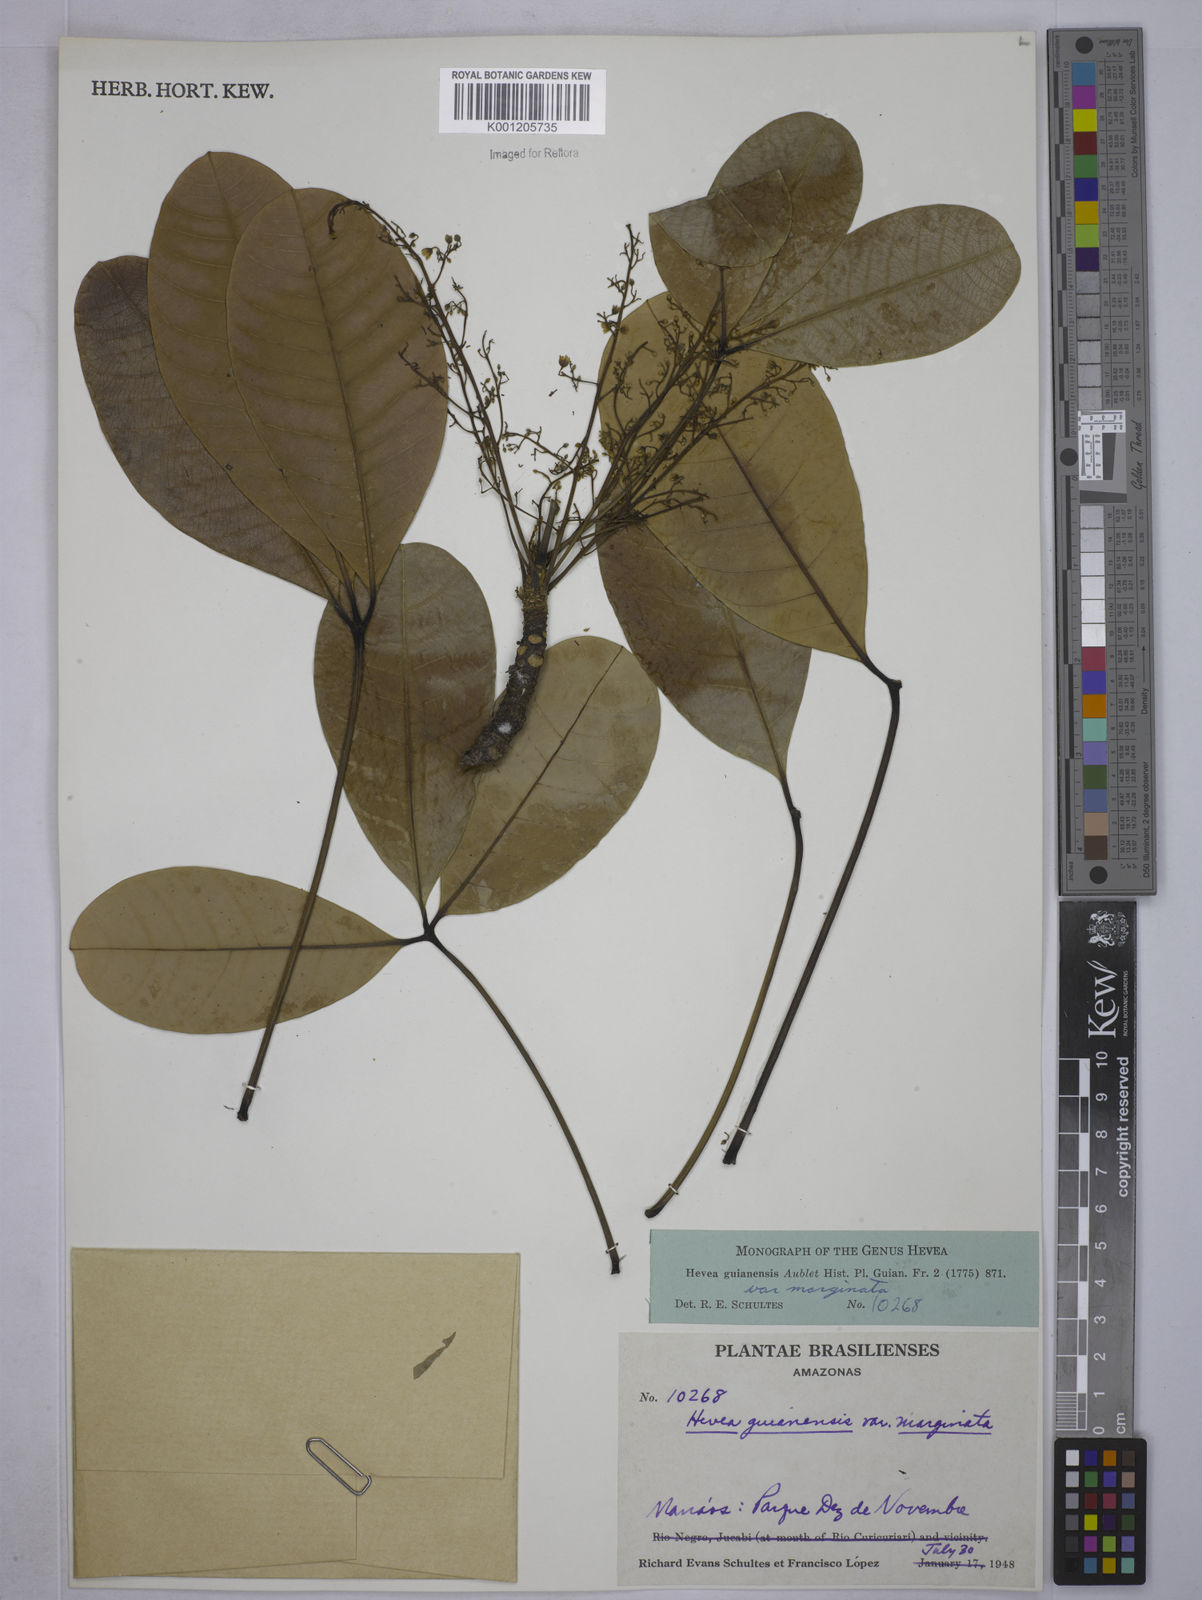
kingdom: Plantae
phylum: Tracheophyta
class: Magnoliopsida
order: Malpighiales
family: Euphorbiaceae
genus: Hevea
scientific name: Hevea guianensis
